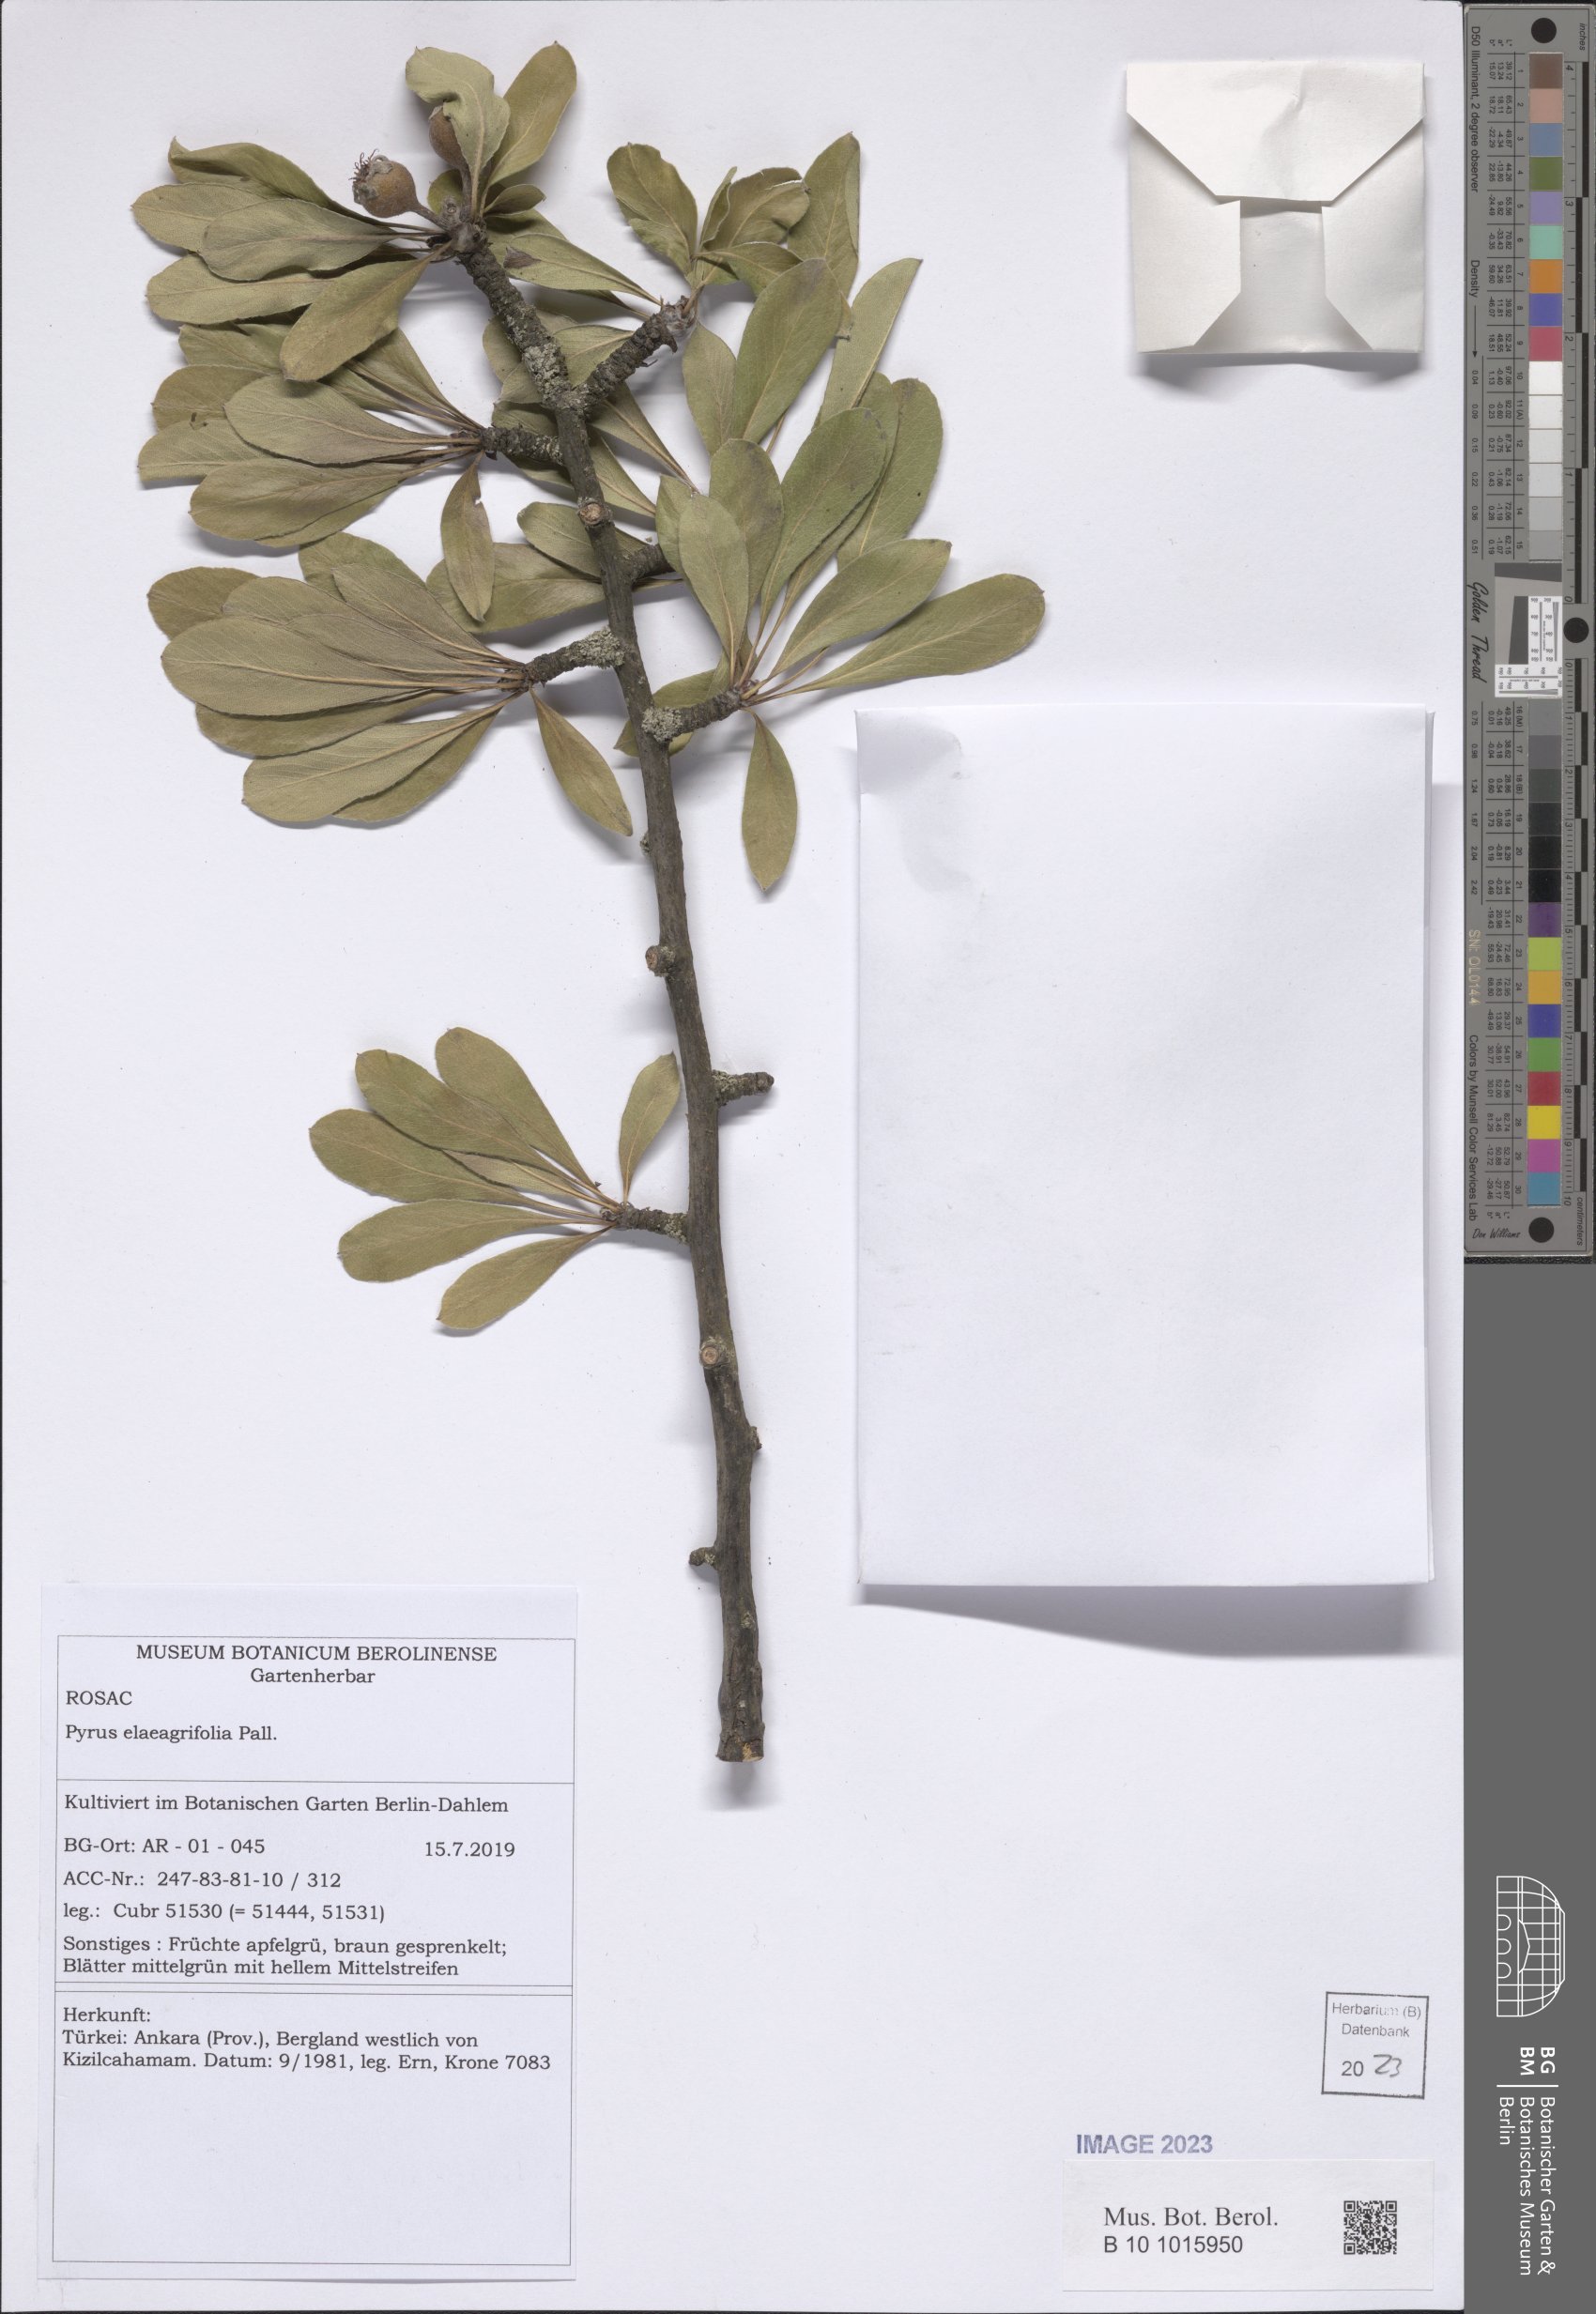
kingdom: Plantae
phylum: Tracheophyta
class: Magnoliopsida
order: Rosales
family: Rosaceae
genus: Pyrus
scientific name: Pyrus elaeagnifolia
